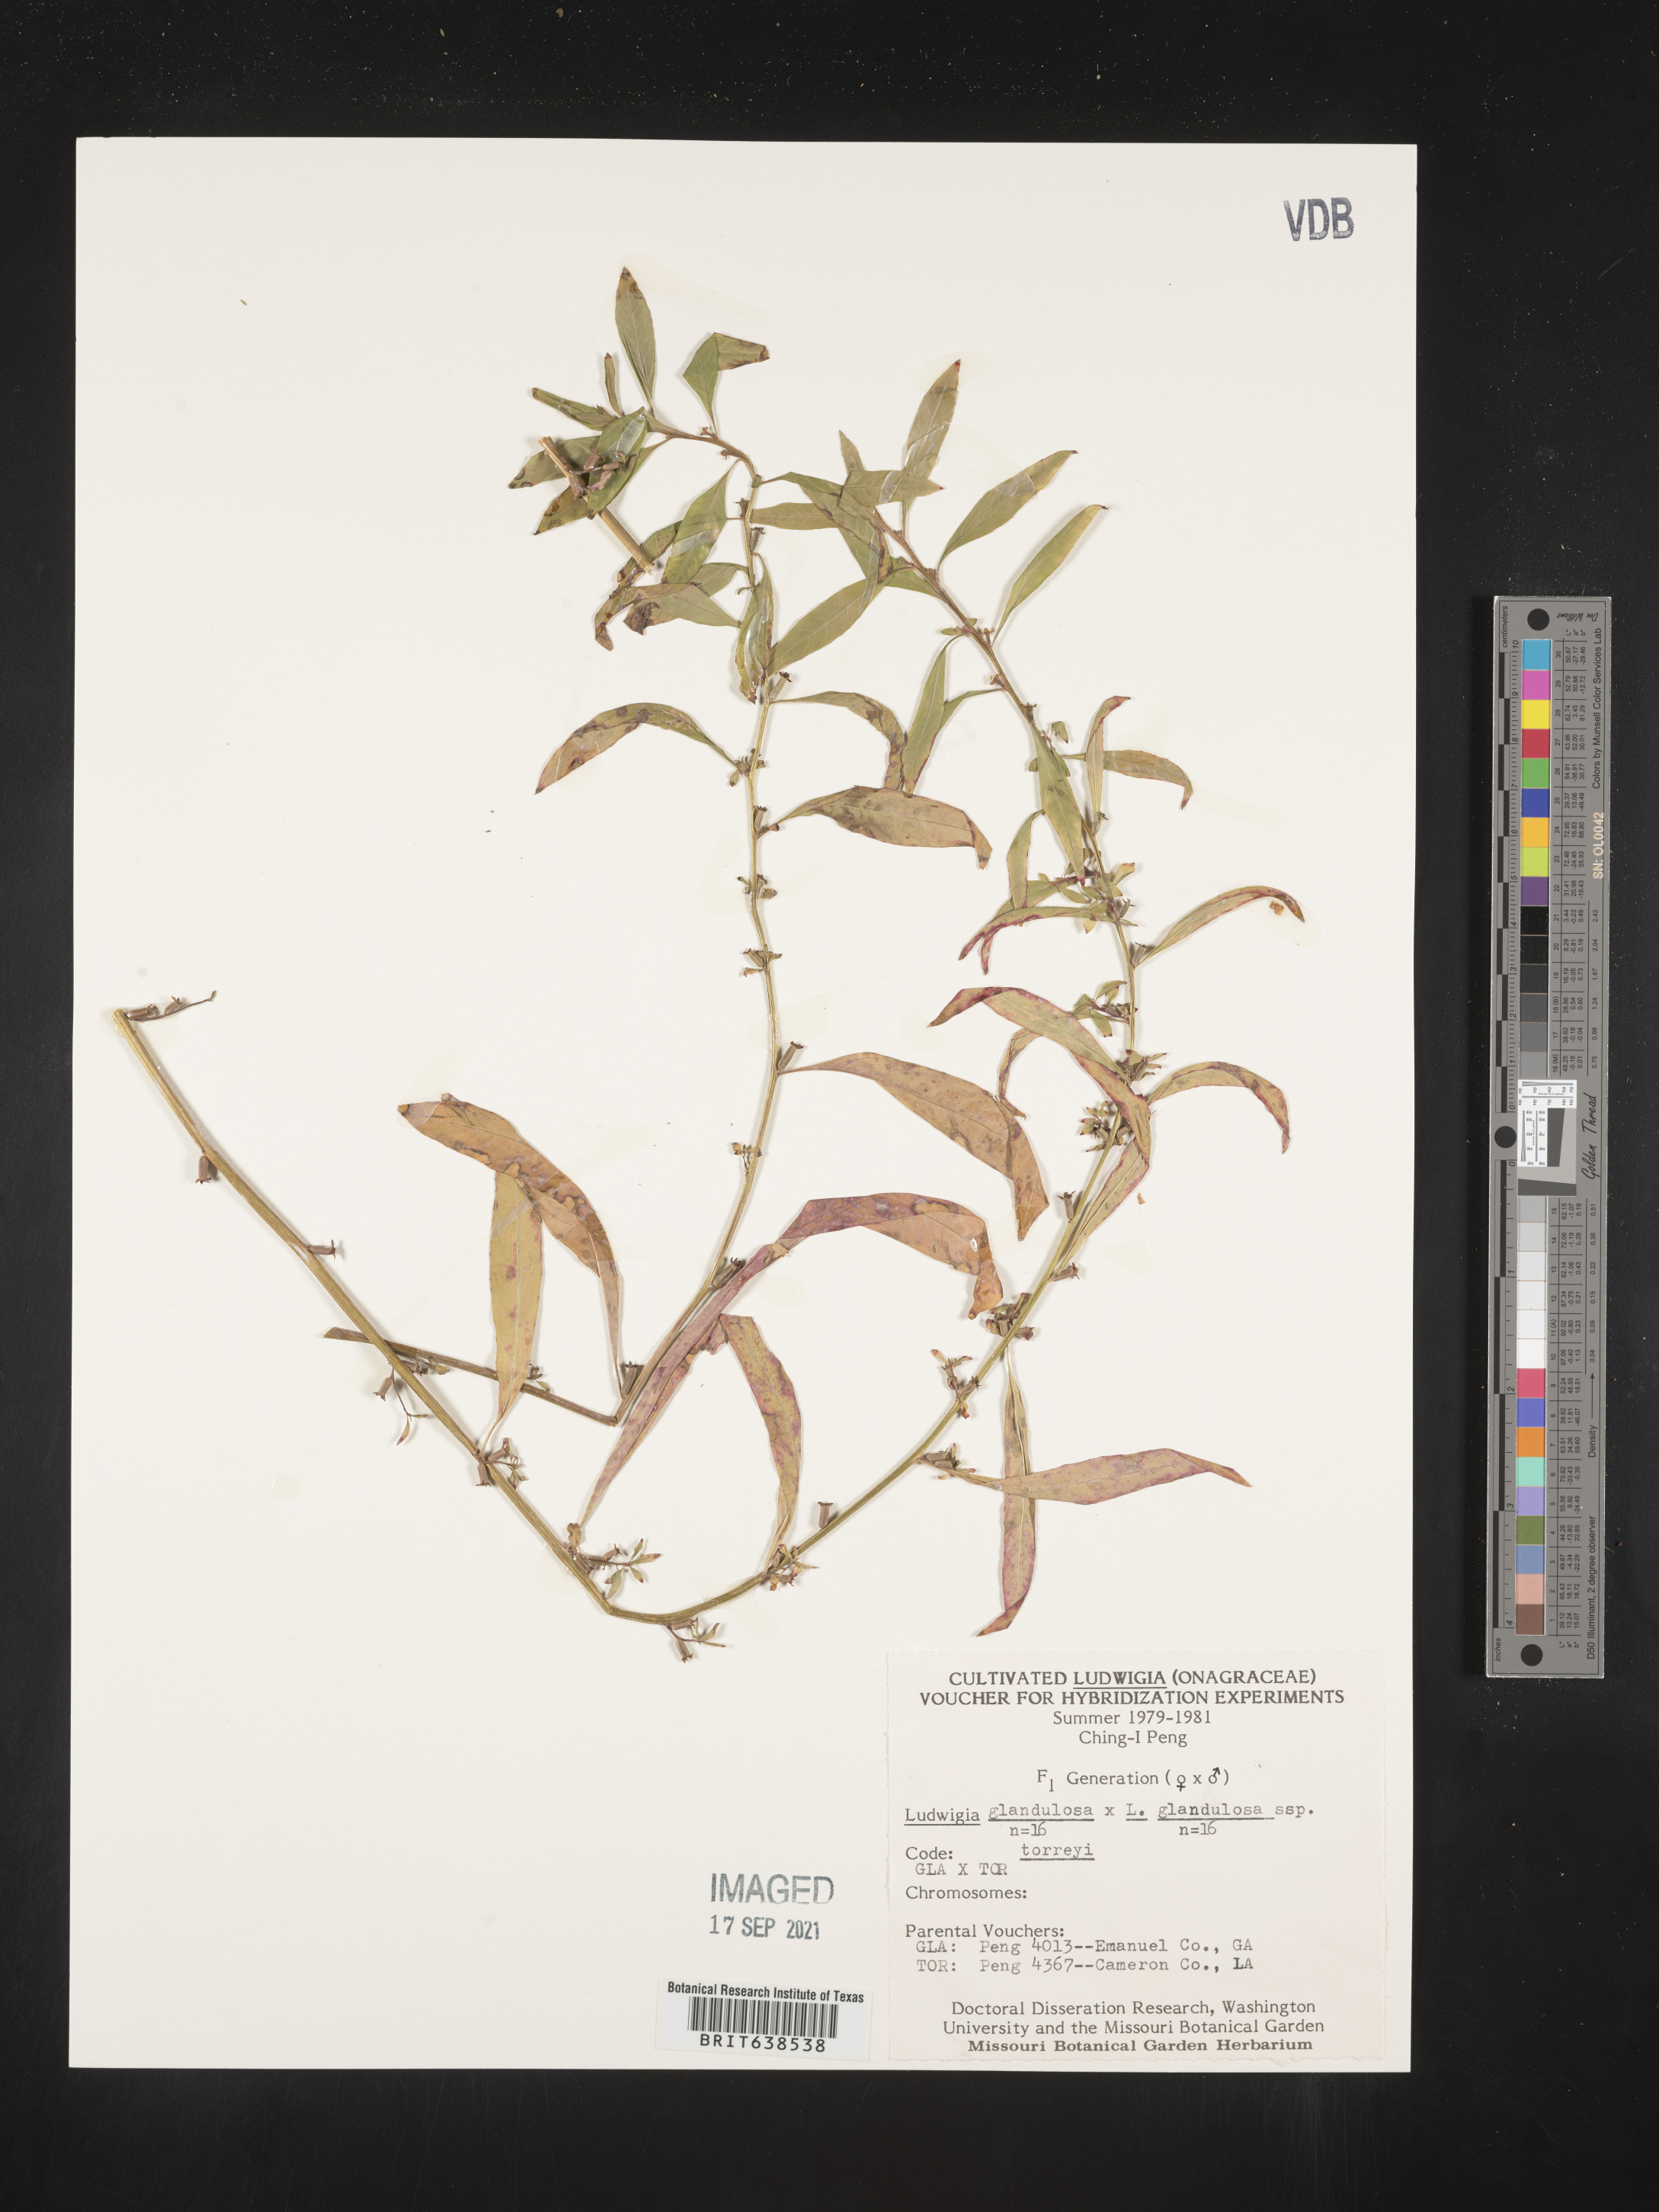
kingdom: Plantae
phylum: Tracheophyta
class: Magnoliopsida
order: Myrtales
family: Onagraceae
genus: Ludwigia
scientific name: Ludwigia
